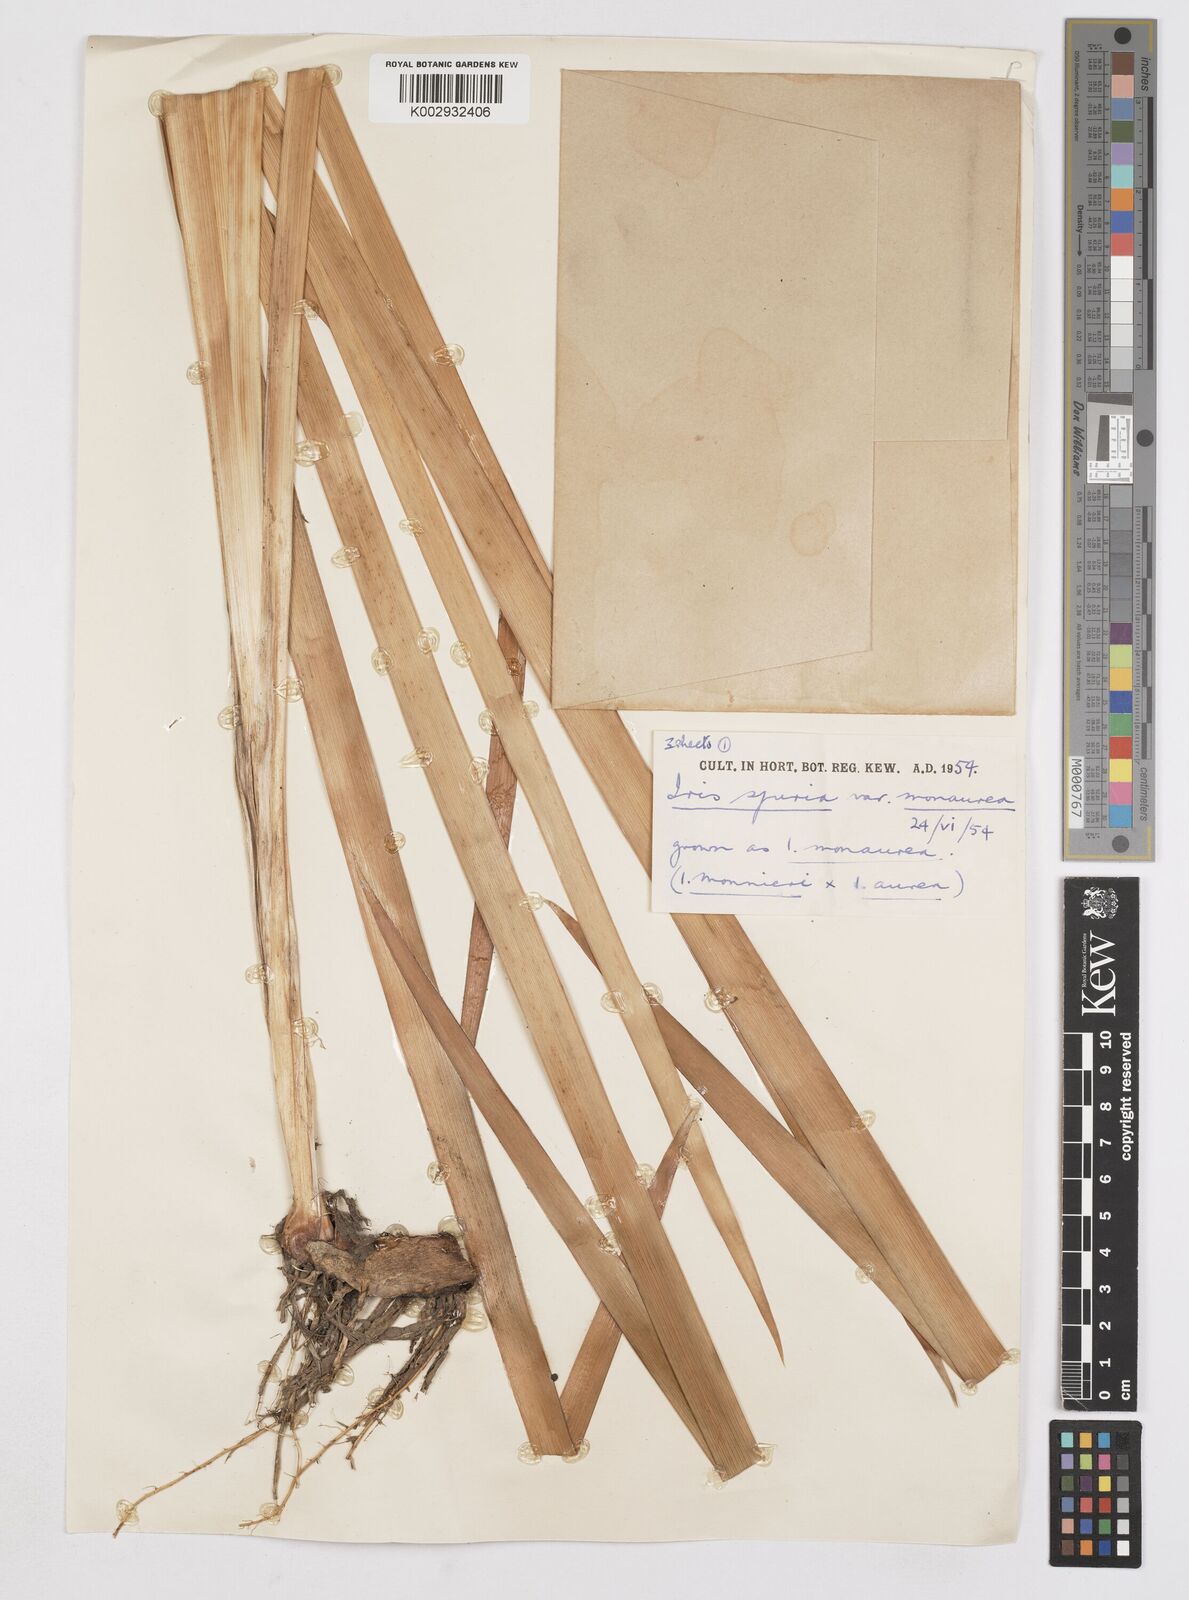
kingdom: Plantae
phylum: Tracheophyta
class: Liliopsida
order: Asparagales
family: Iridaceae
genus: Iris
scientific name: Iris spuria
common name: Blue iris
